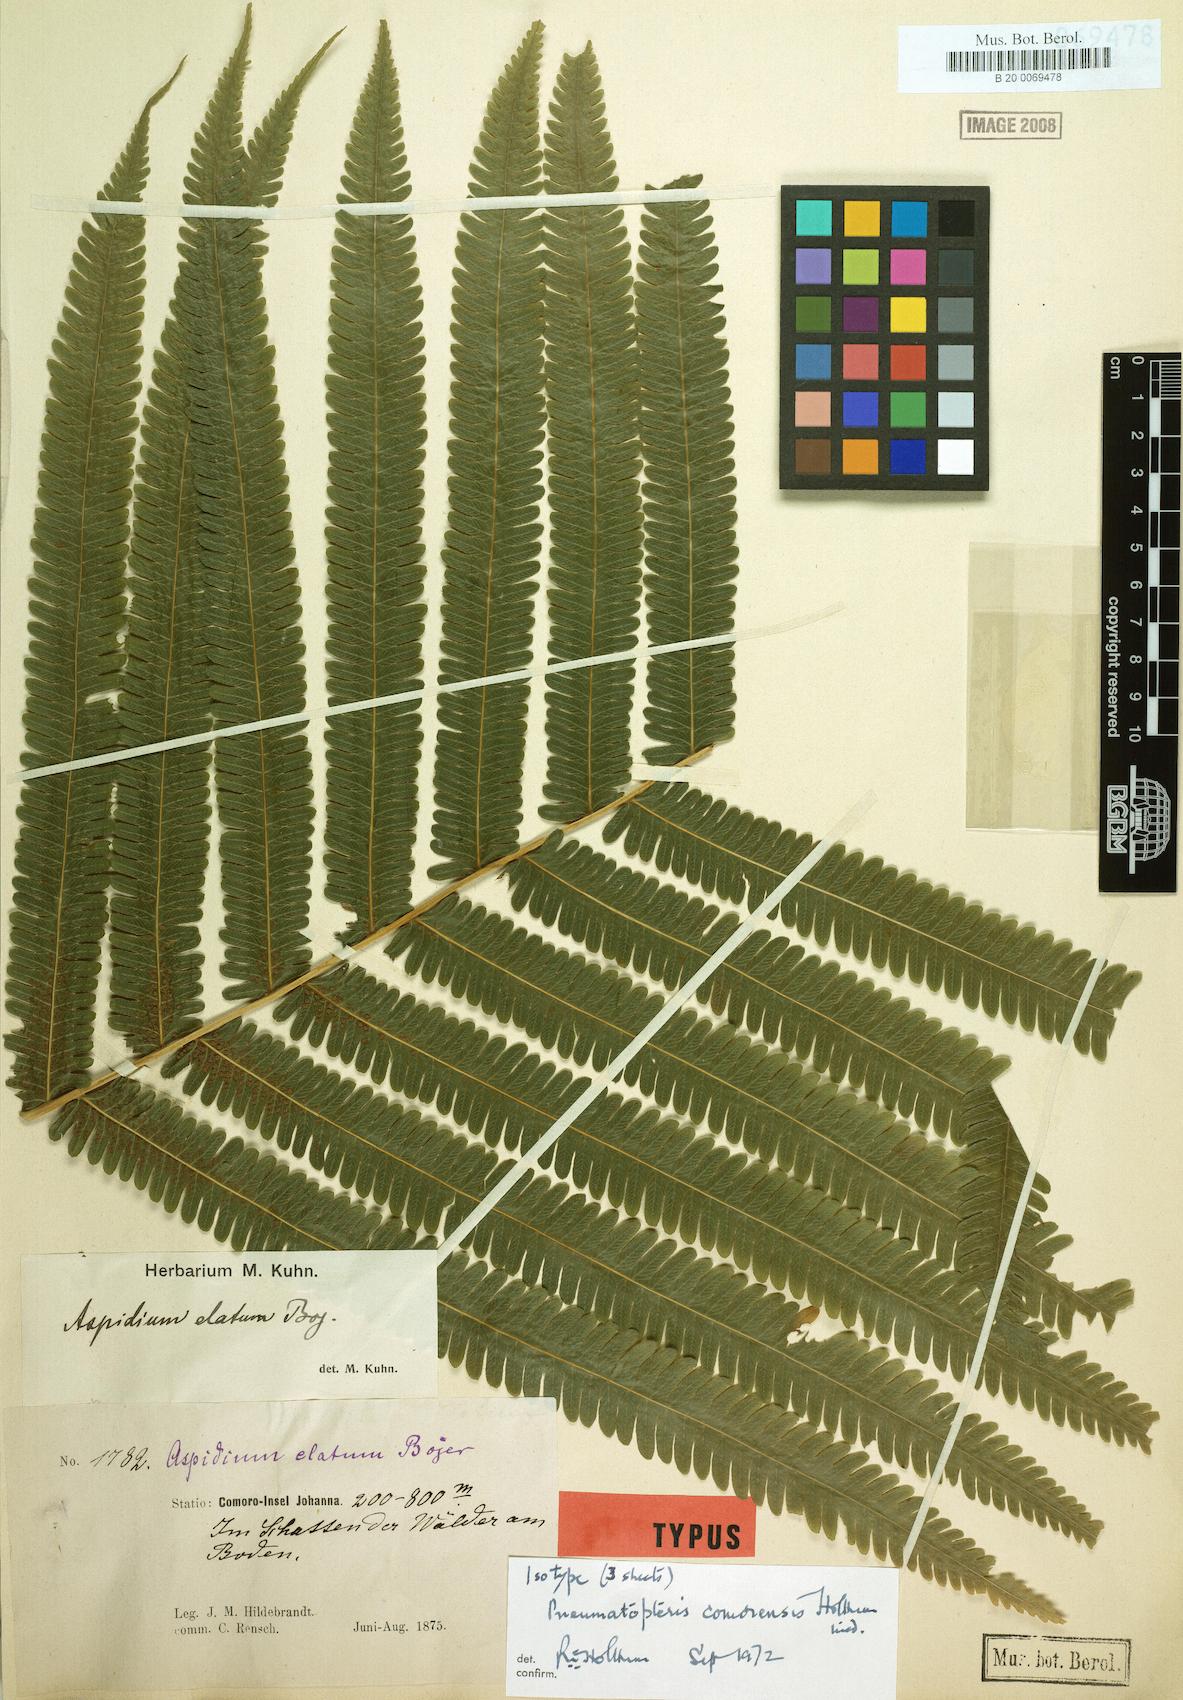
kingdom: Plantae
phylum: Tracheophyta
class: Polypodiopsida
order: Polypodiales
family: Thelypteridaceae
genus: Pneumatopteris
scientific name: Pneumatopteris comorensis
